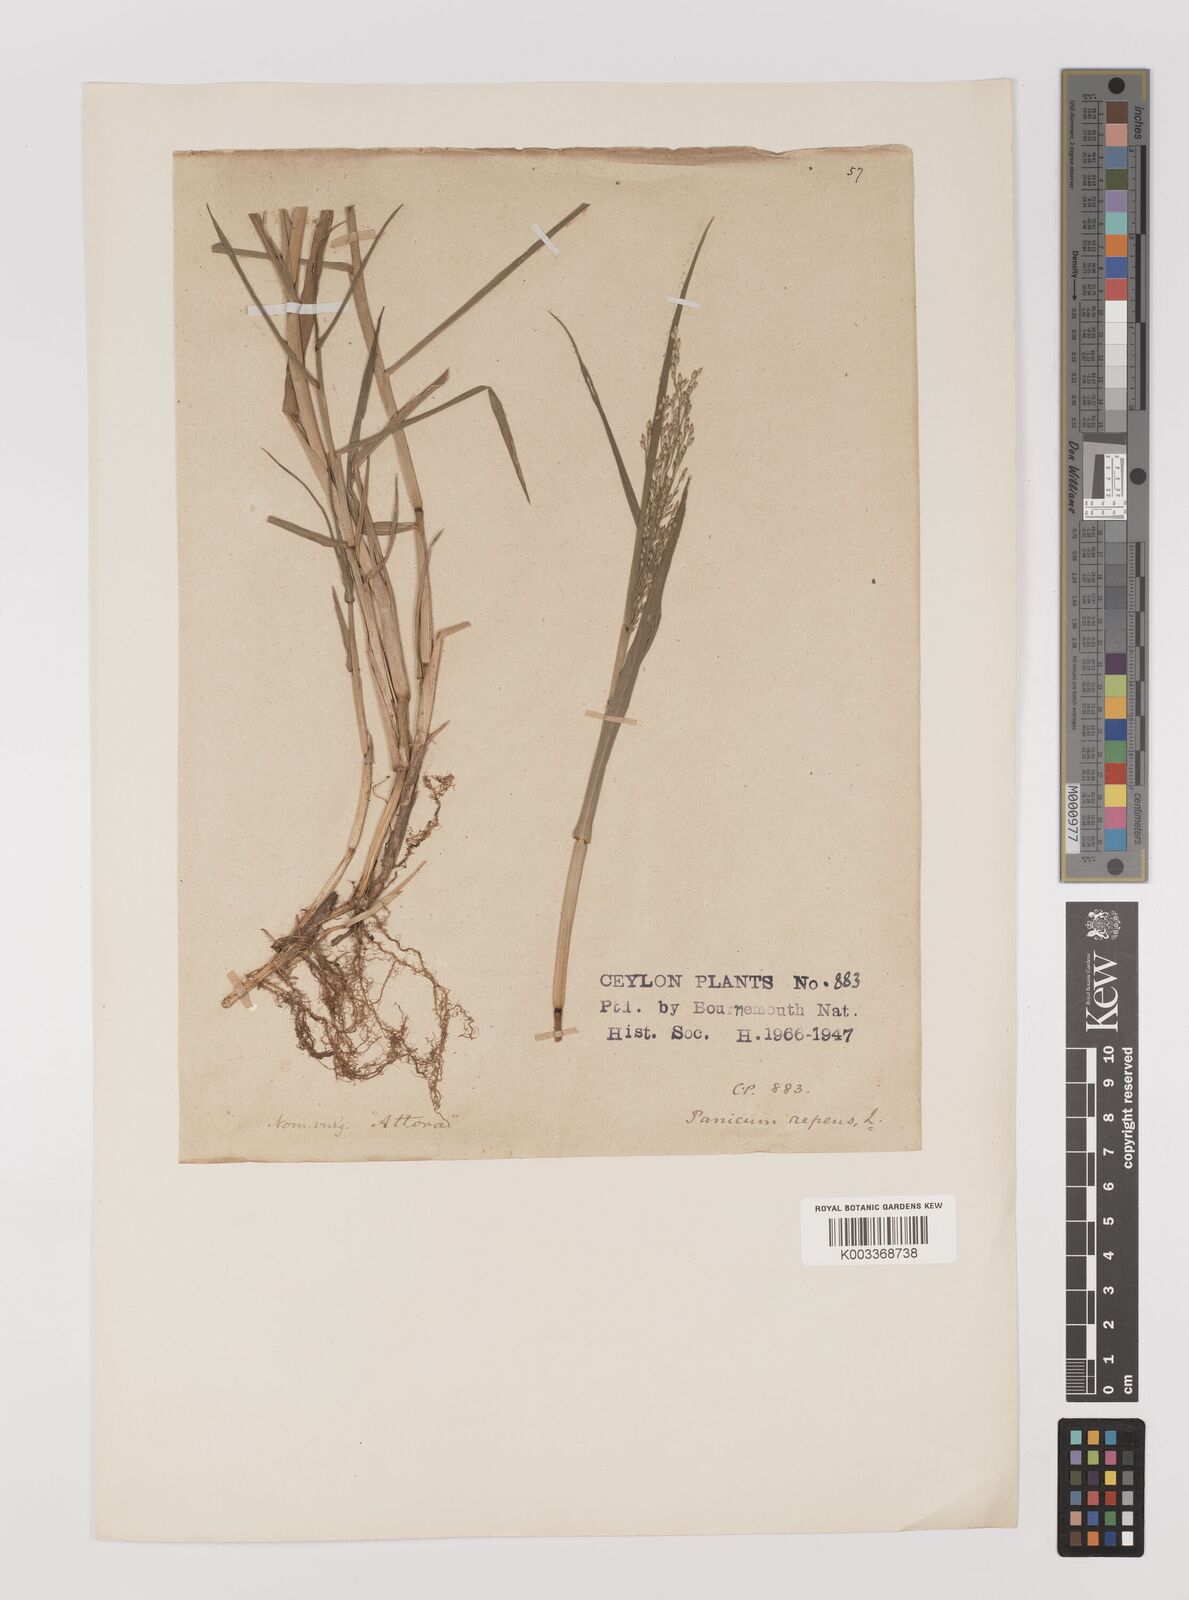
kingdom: Plantae
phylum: Tracheophyta
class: Liliopsida
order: Poales
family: Poaceae
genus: Panicum
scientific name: Panicum repens
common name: Torpedo grass
